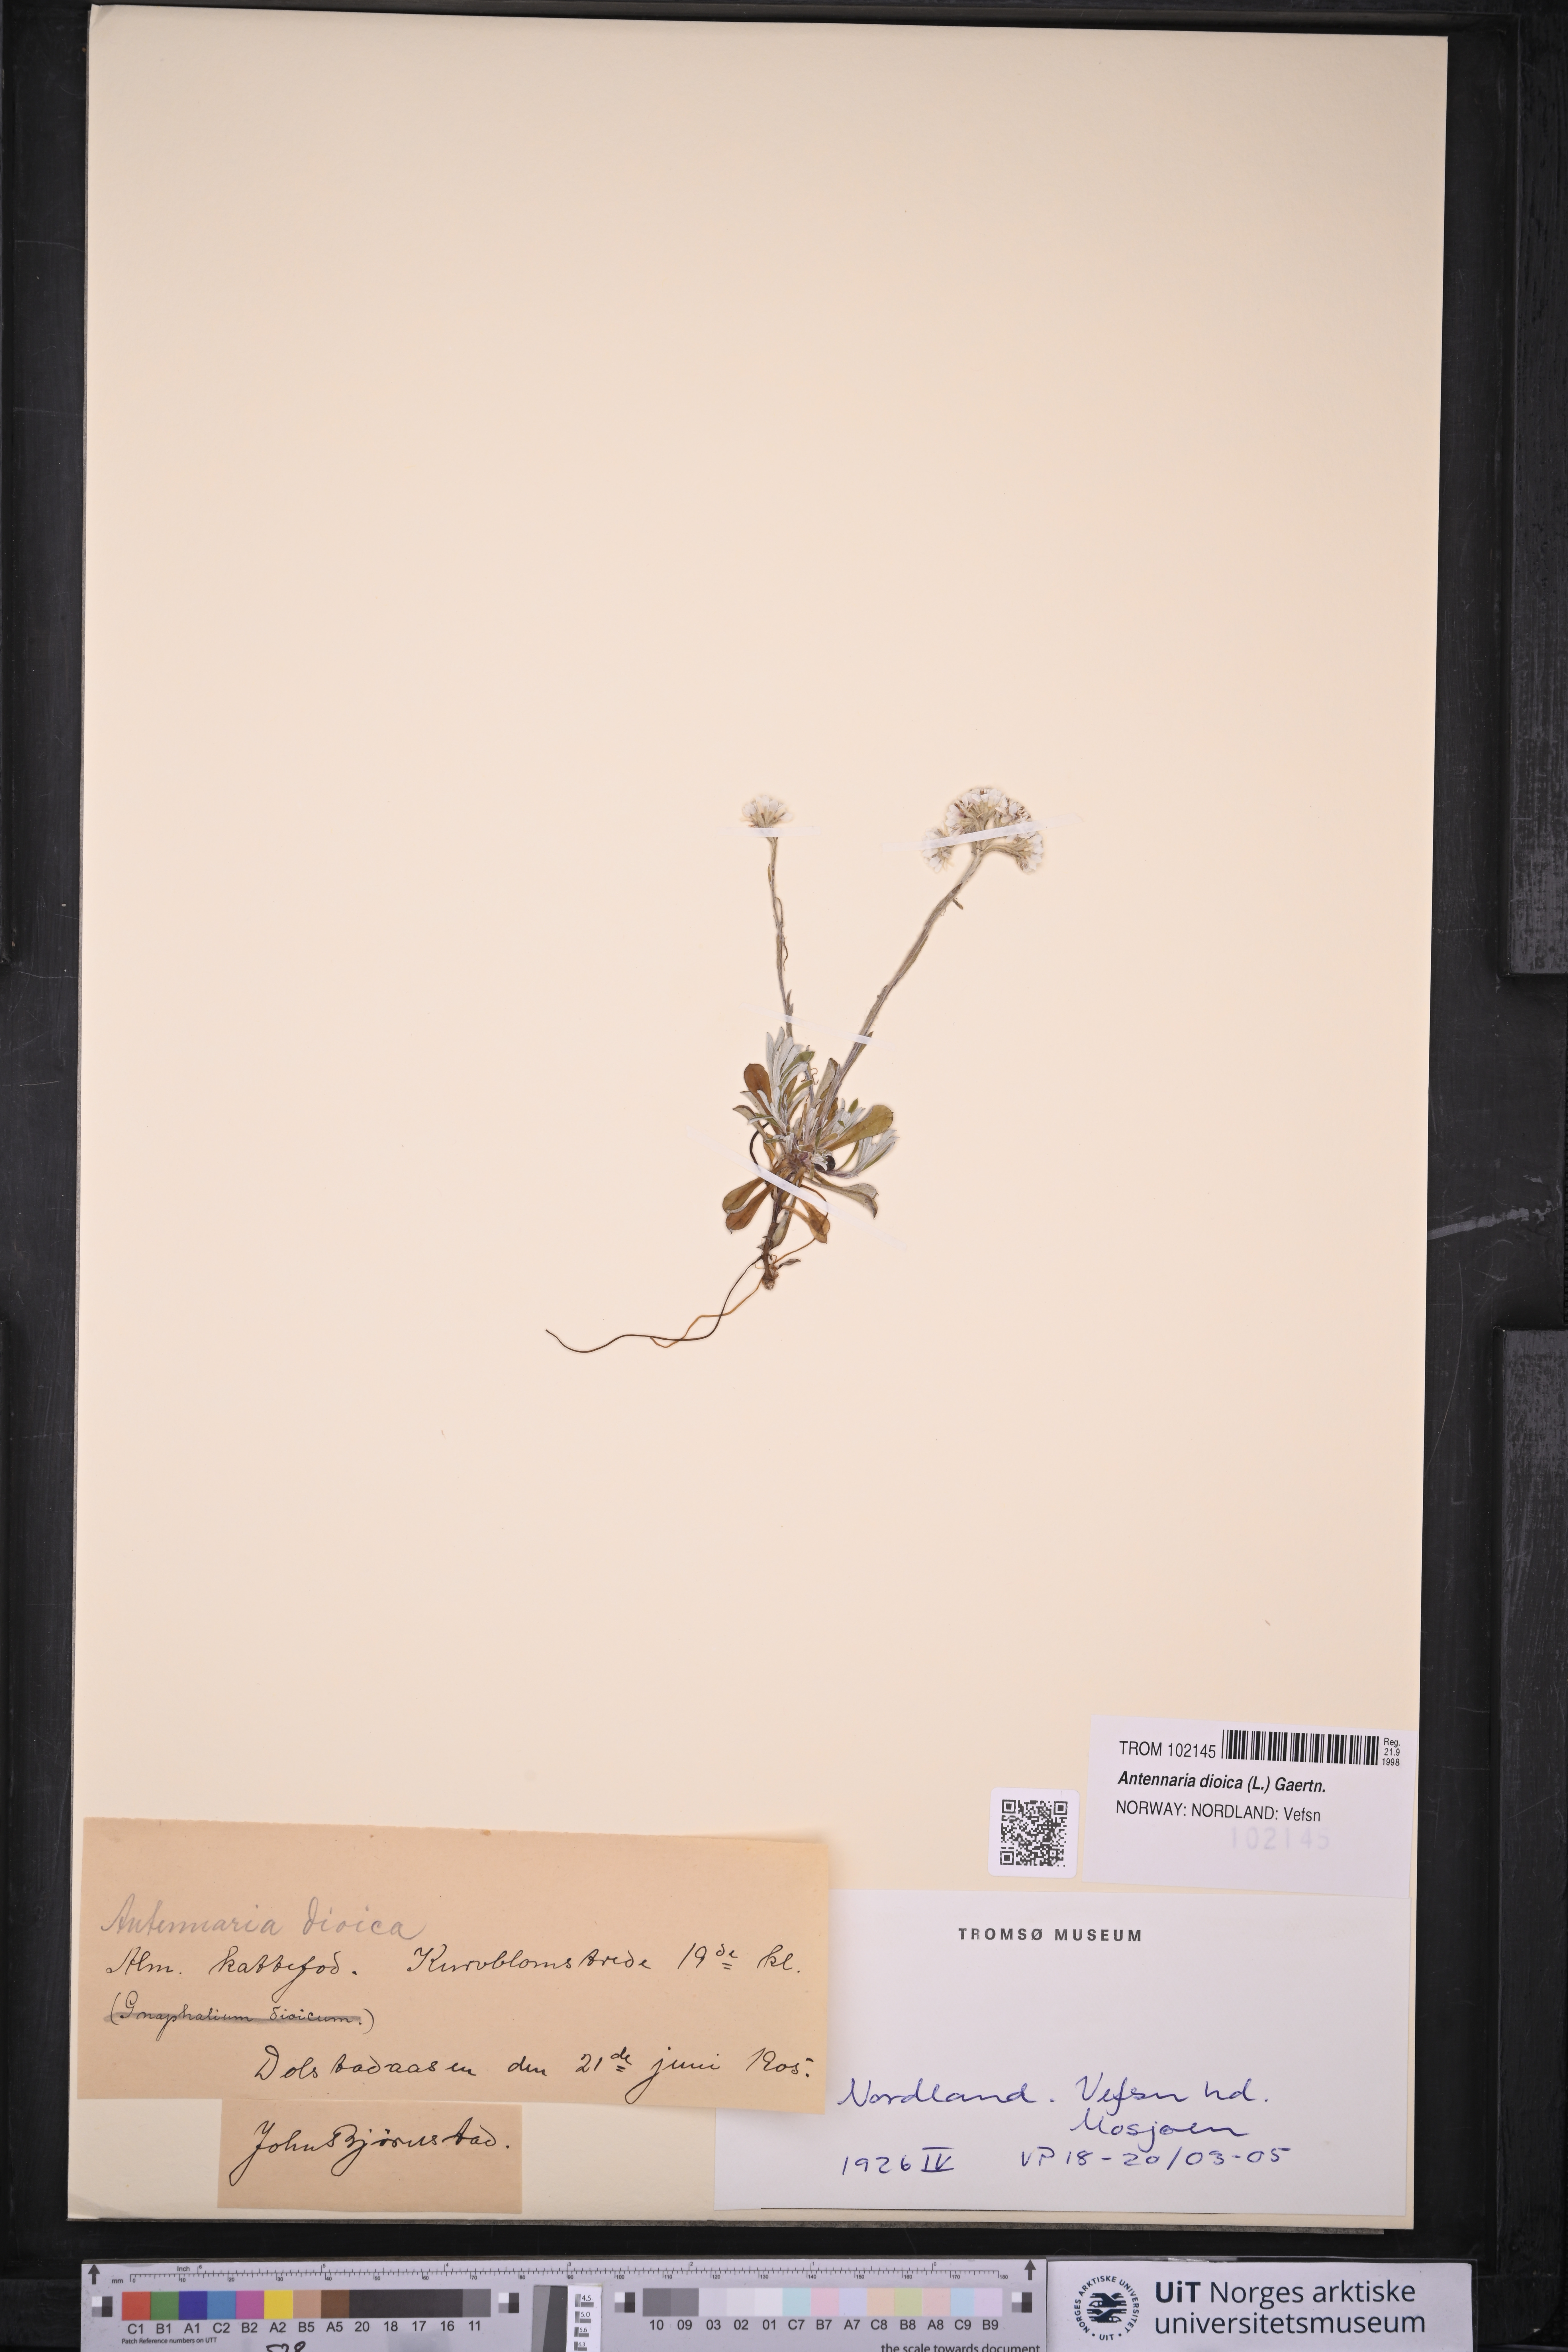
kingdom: Plantae
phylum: Tracheophyta
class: Magnoliopsida
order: Asterales
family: Asteraceae
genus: Antennaria
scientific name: Antennaria dioica
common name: Mountain everlasting
